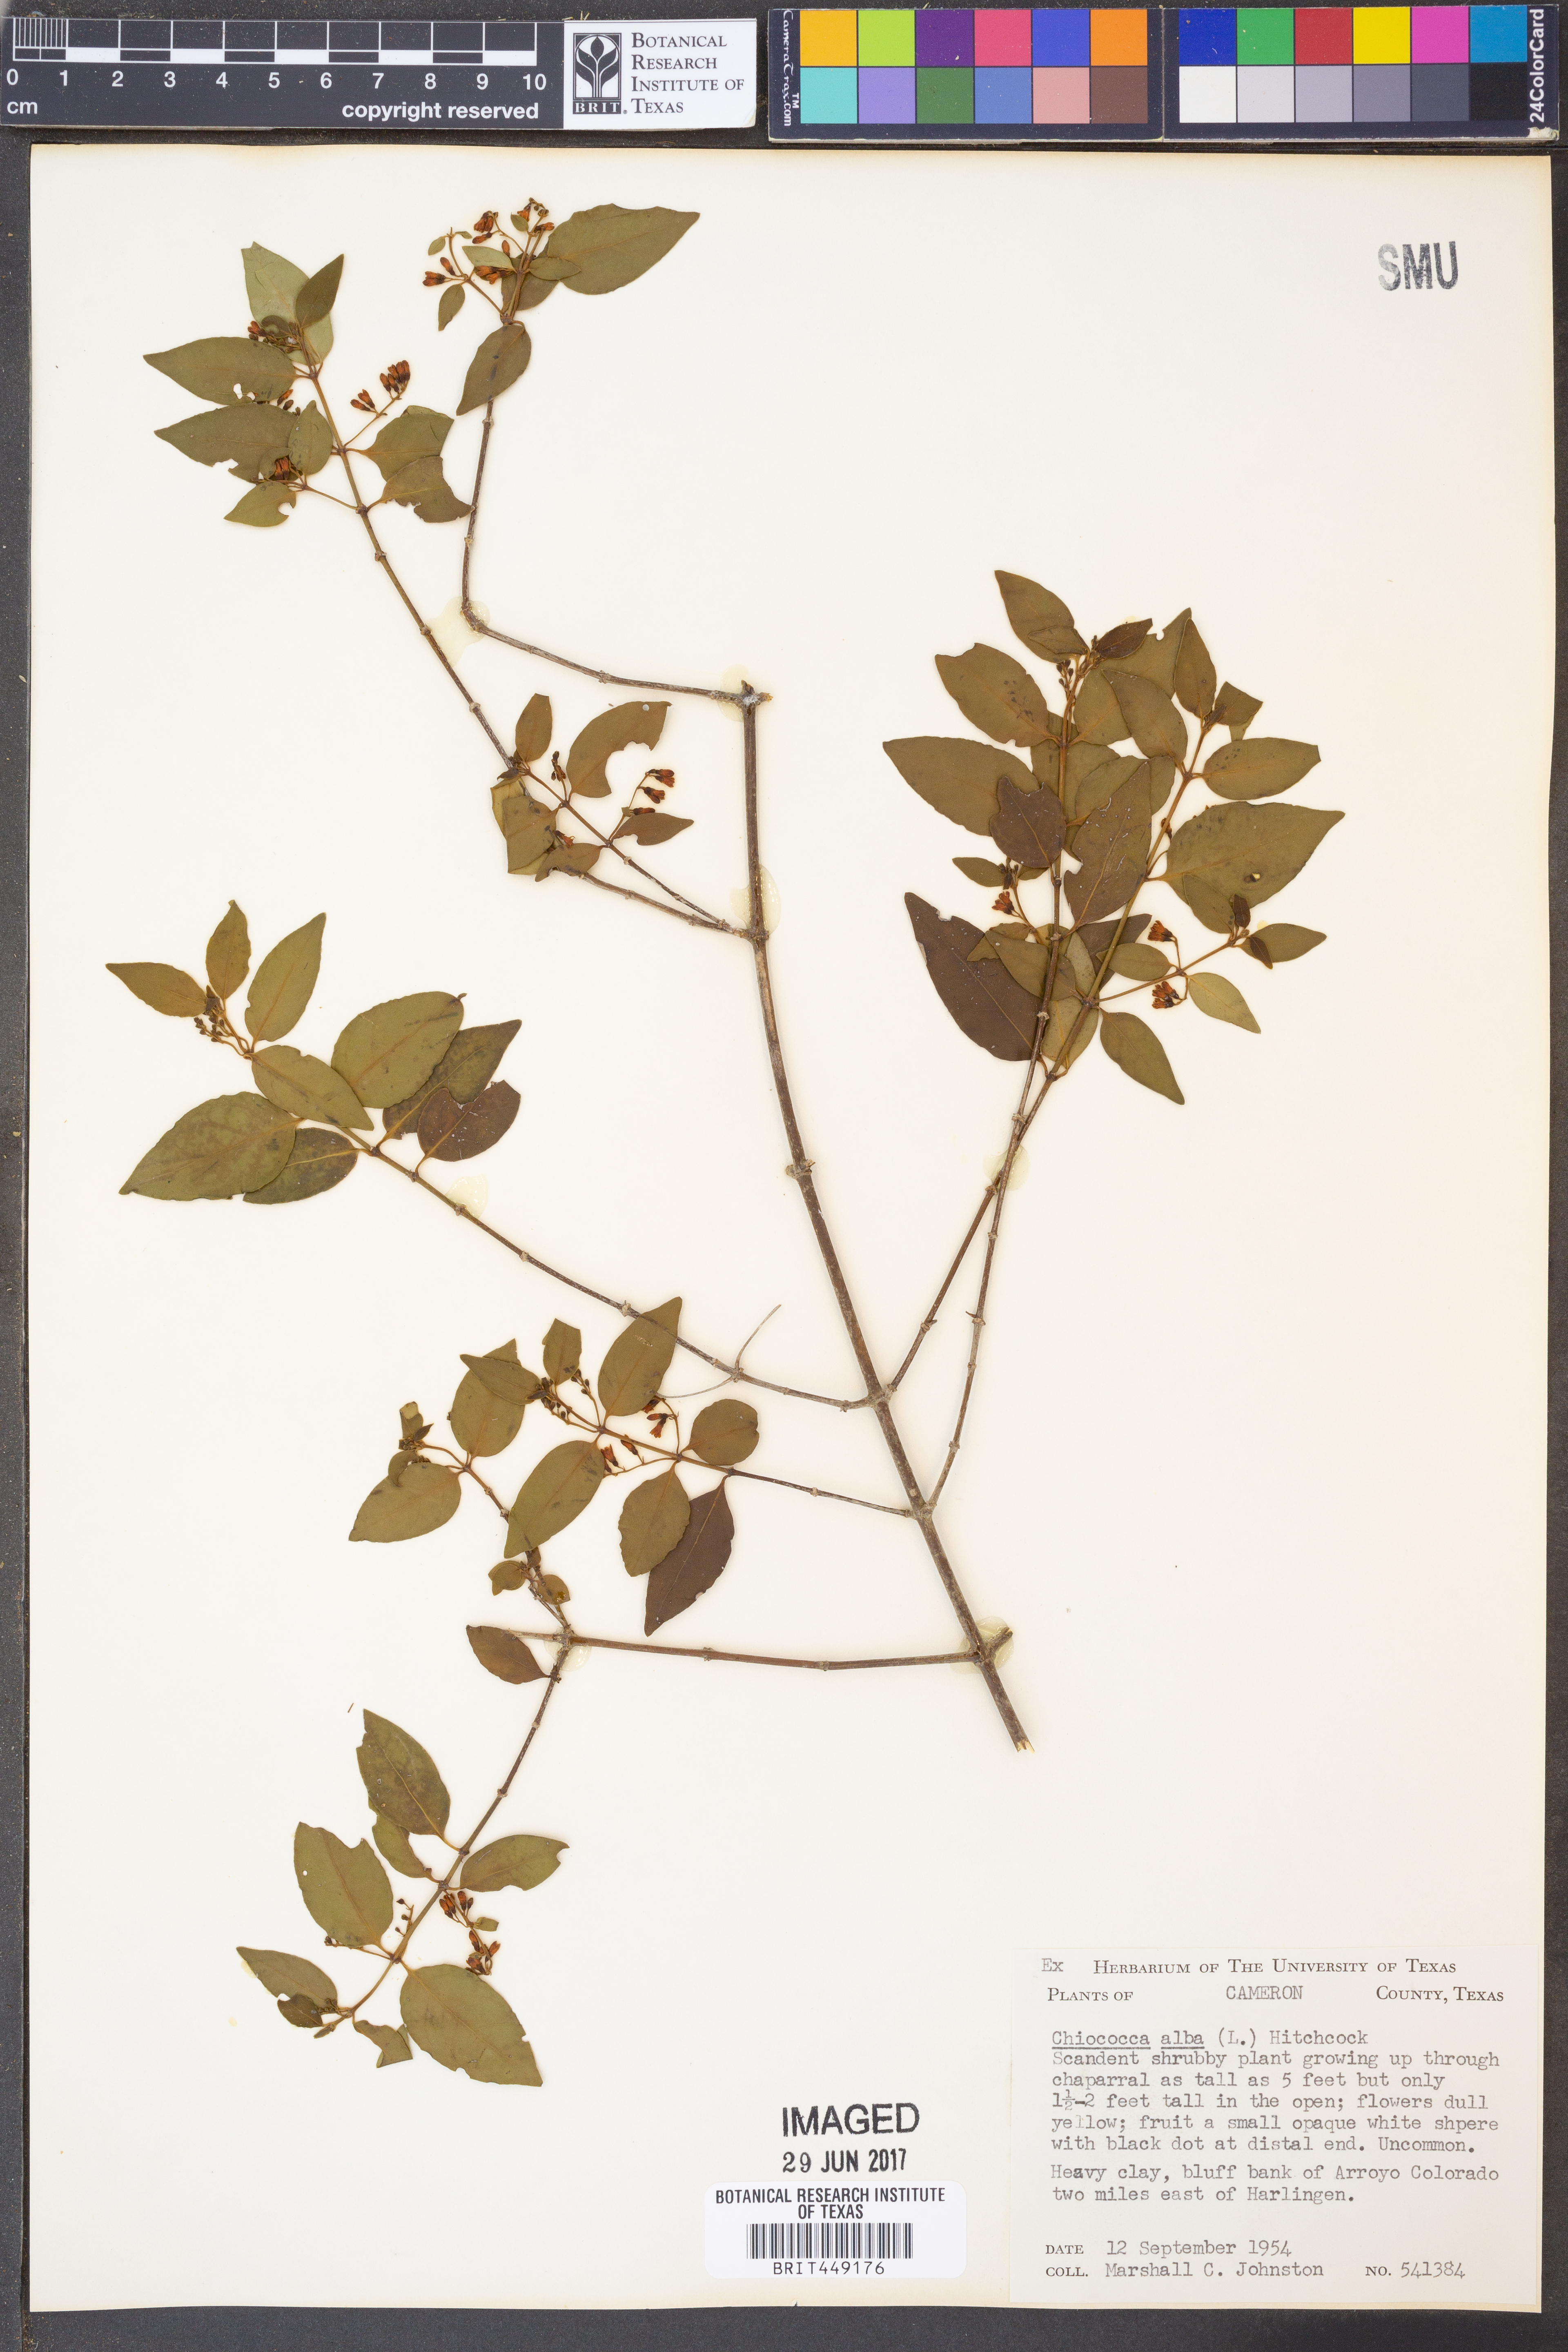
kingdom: Plantae
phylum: Tracheophyta
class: Magnoliopsida
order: Gentianales
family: Rubiaceae
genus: Chiococca
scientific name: Chiococca alba
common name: Snowberry
